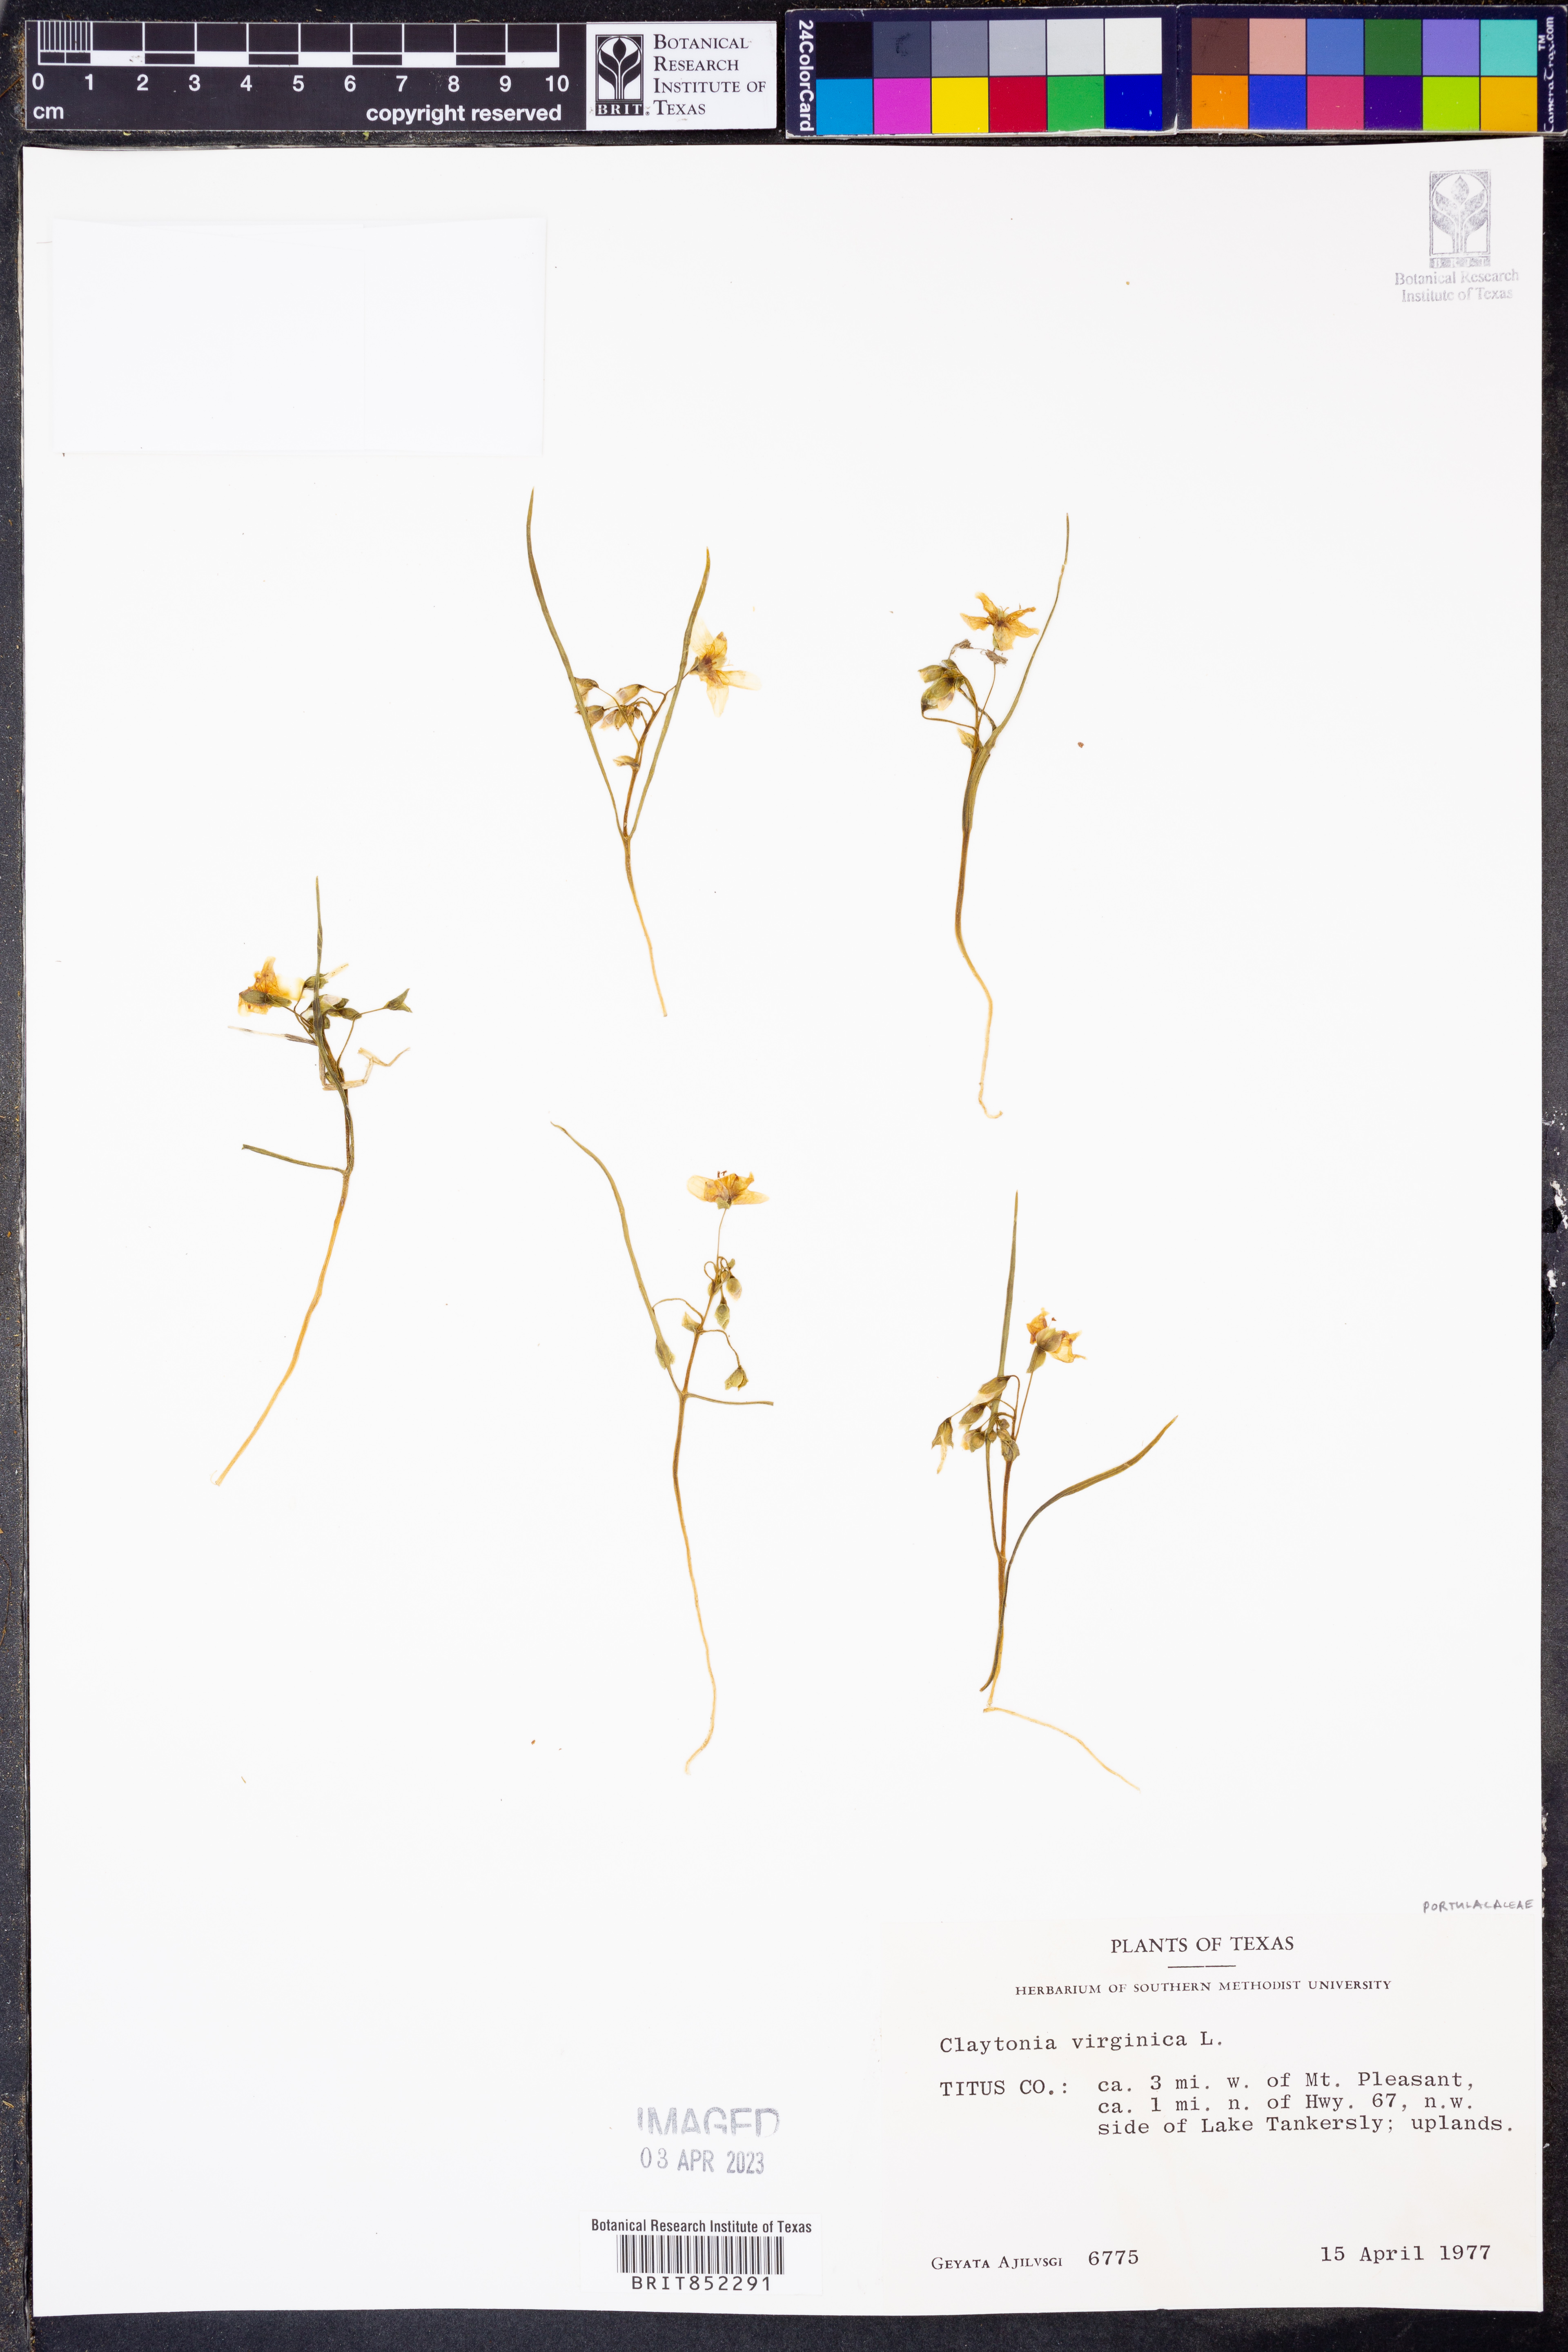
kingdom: Plantae
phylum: Tracheophyta
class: Magnoliopsida
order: Caryophyllales
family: Montiaceae
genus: Claytonia
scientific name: Claytonia virginica
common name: Virginia springbeauty
